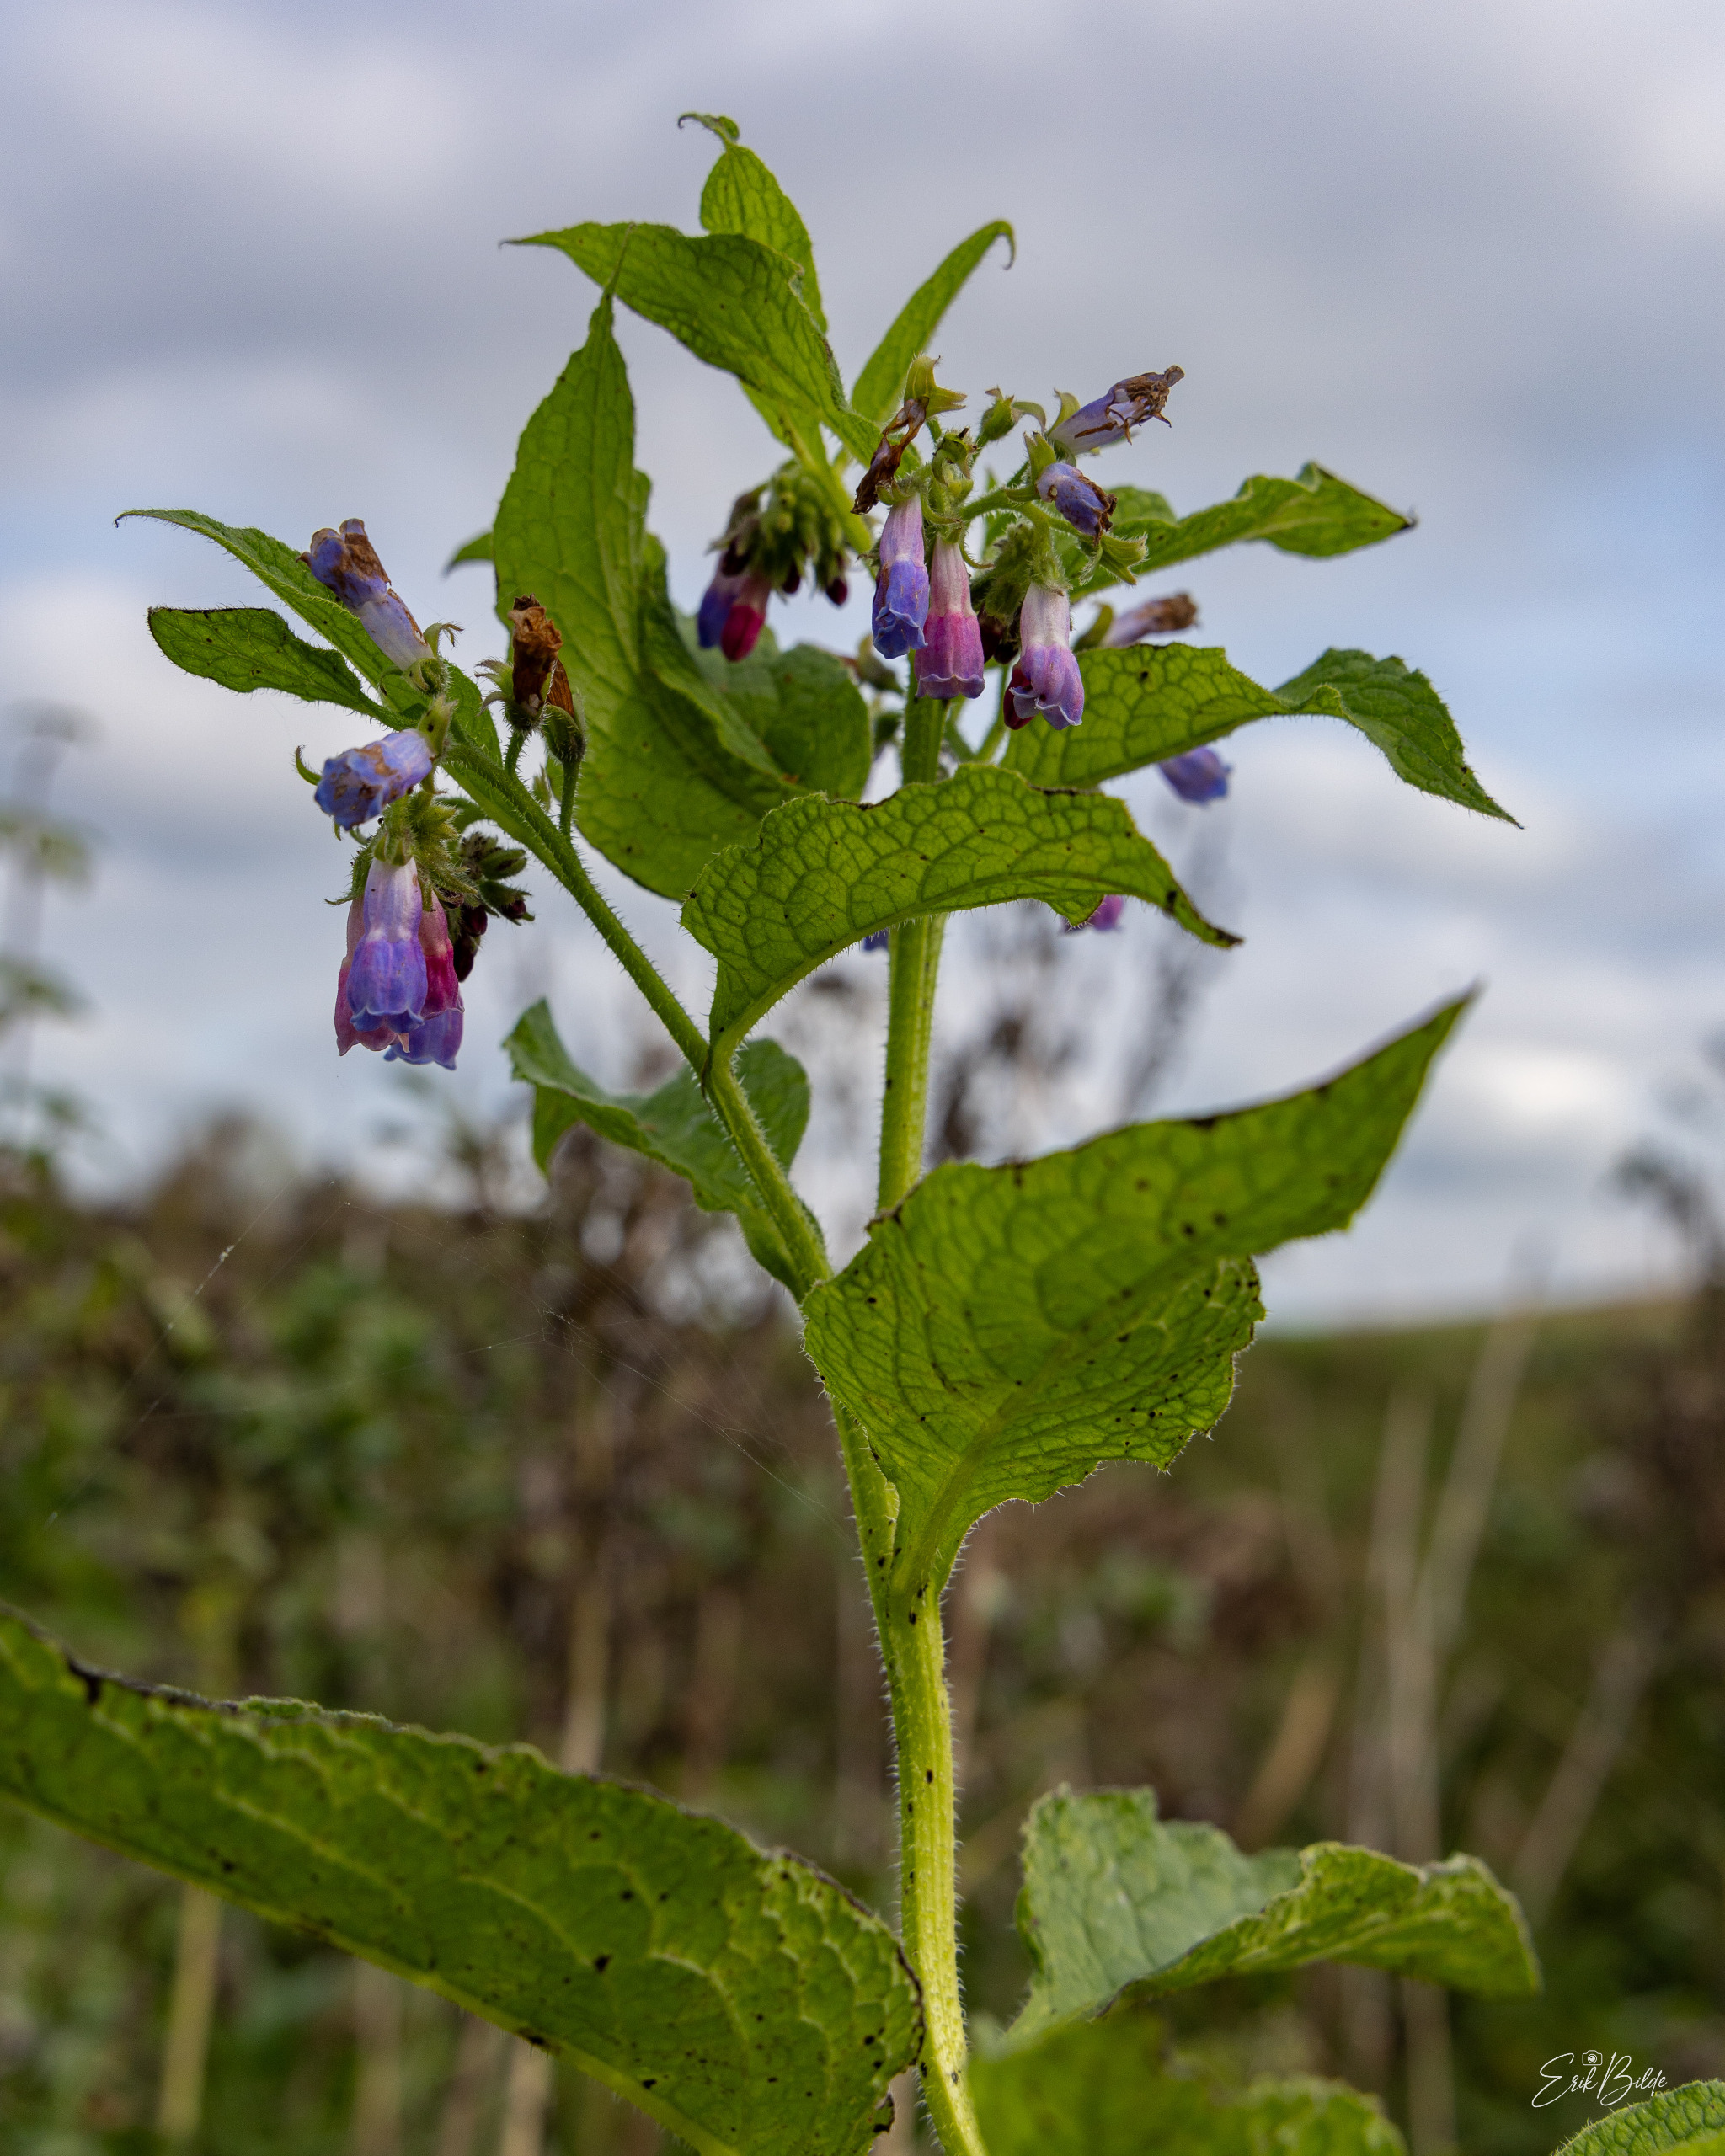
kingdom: Plantae
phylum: Tracheophyta
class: Magnoliopsida
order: Boraginales
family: Boraginaceae
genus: Symphytum
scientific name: Symphytum uplandicum
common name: Foder-kulsukker
